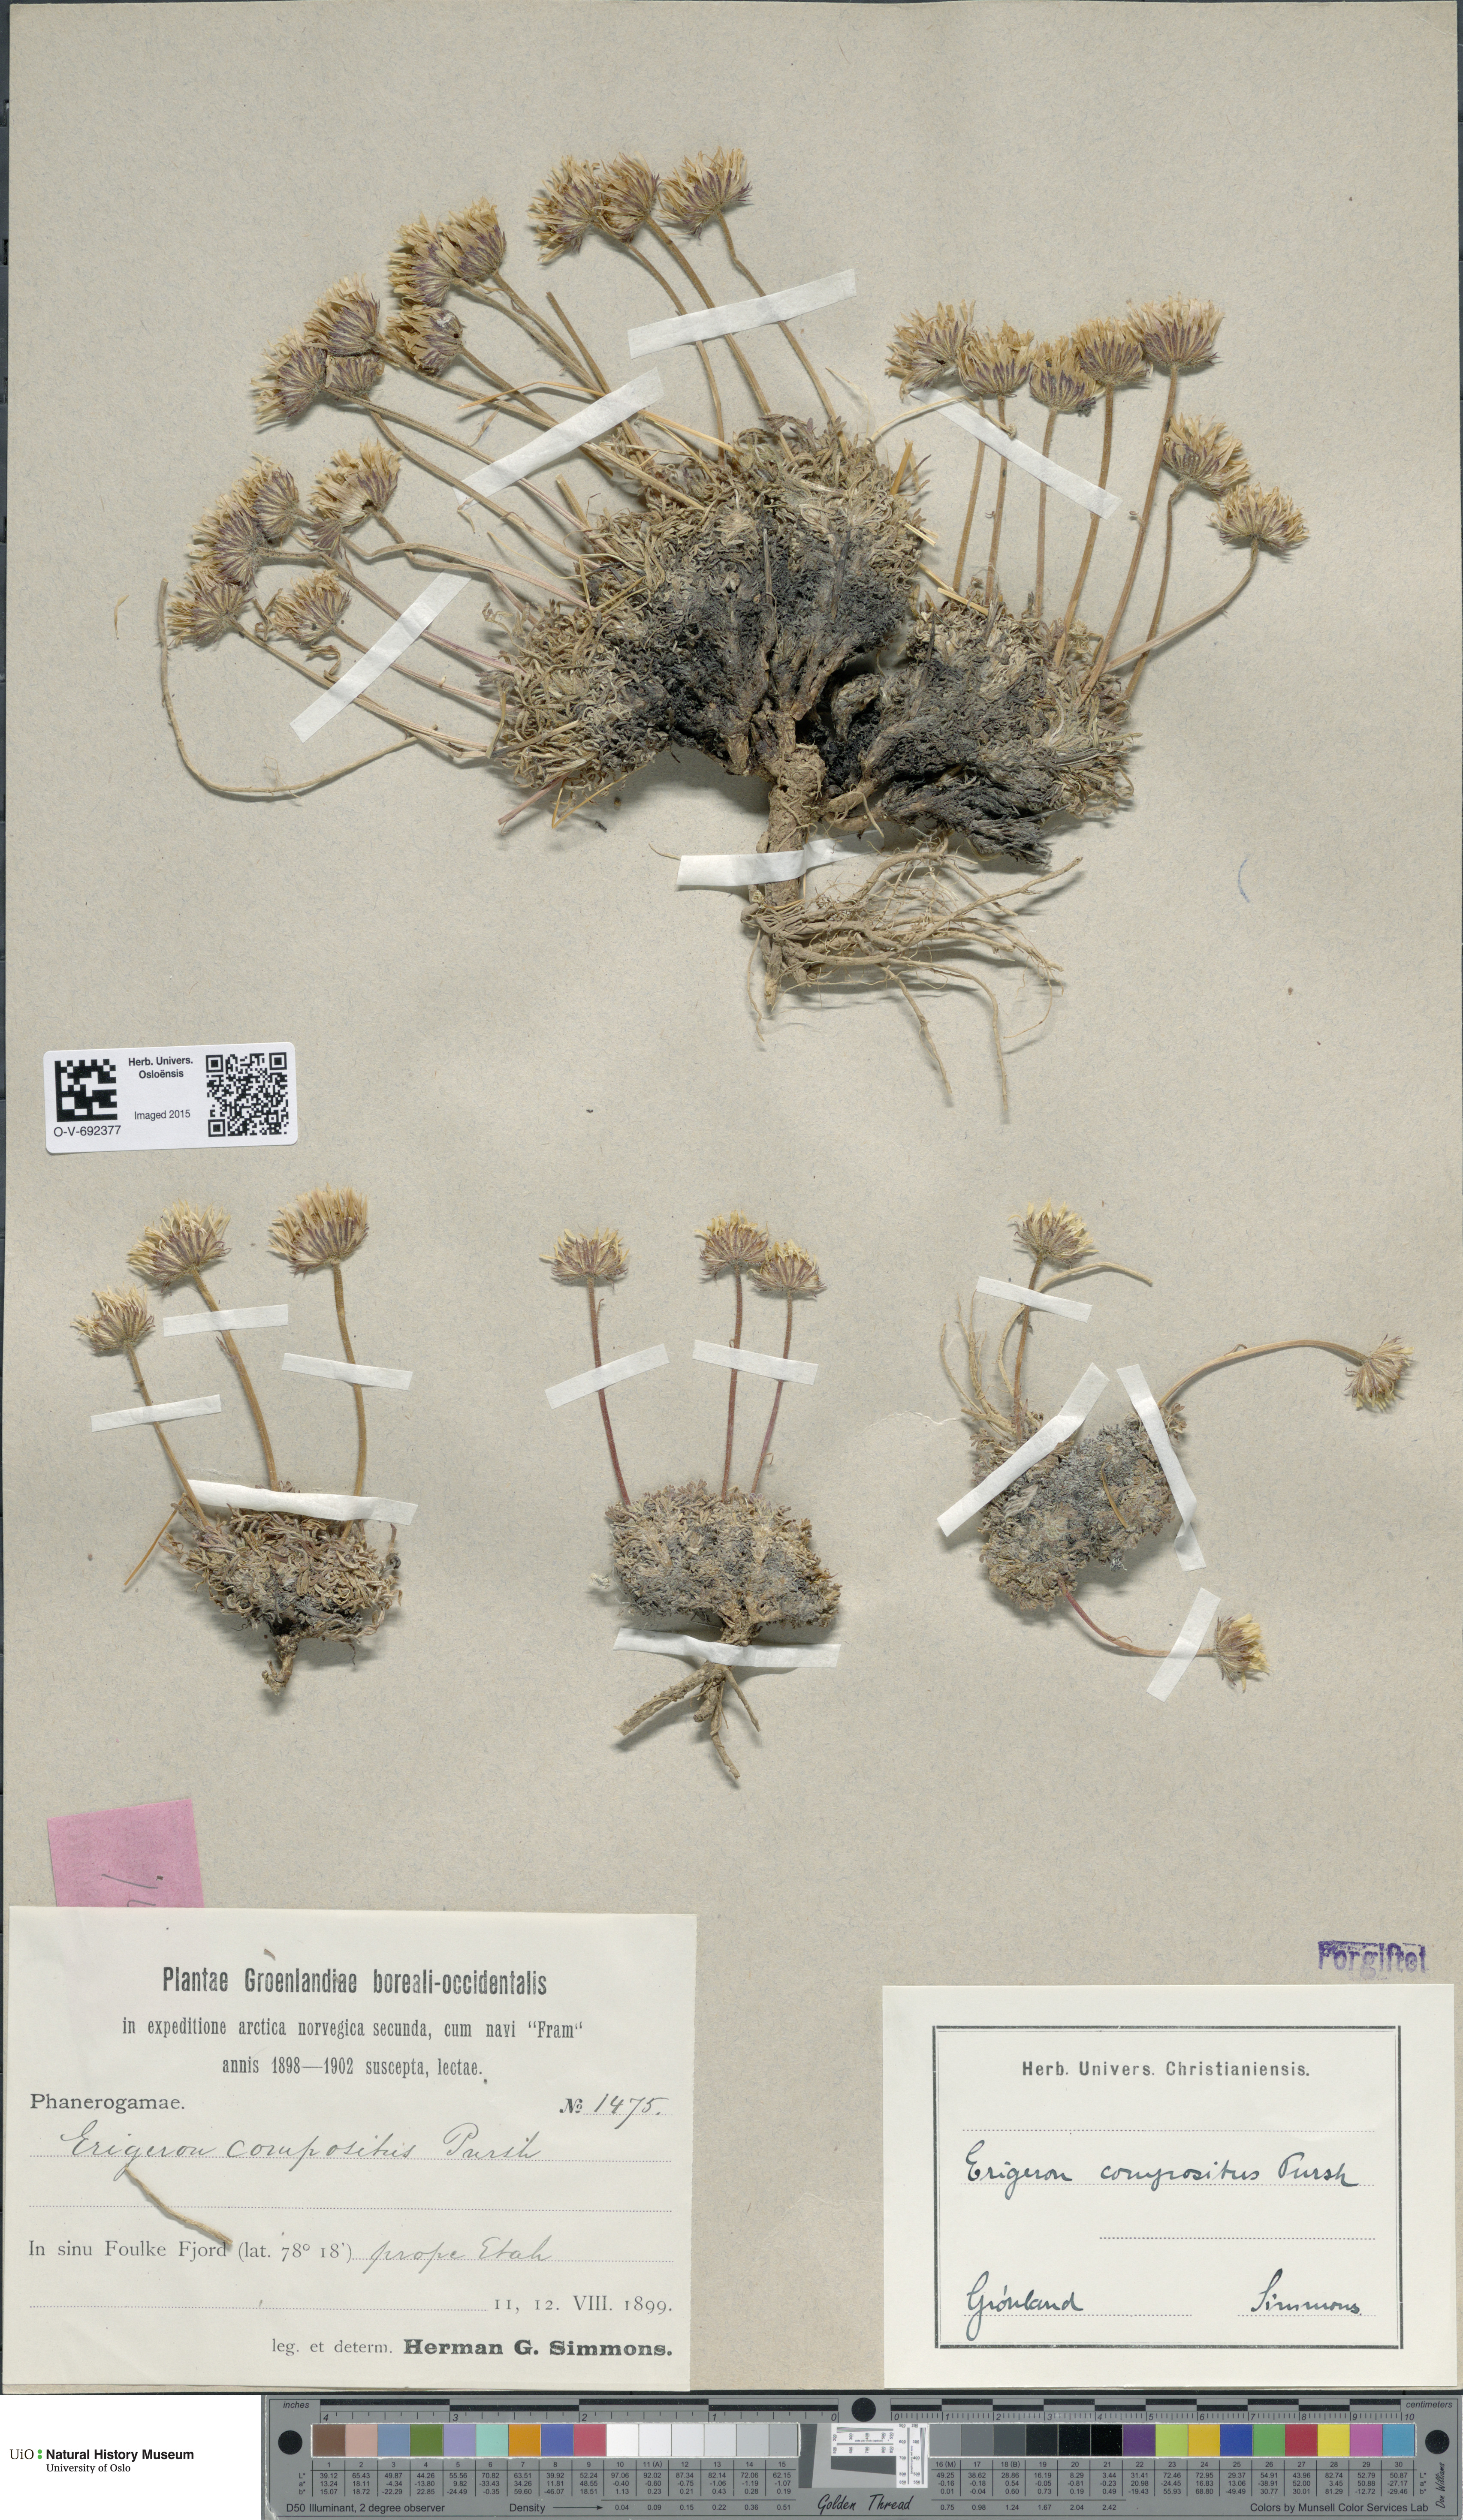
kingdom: Plantae
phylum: Tracheophyta
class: Magnoliopsida
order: Asterales
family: Asteraceae
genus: Erigeron
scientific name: Erigeron compositus
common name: Dwarf mountain fleabane
